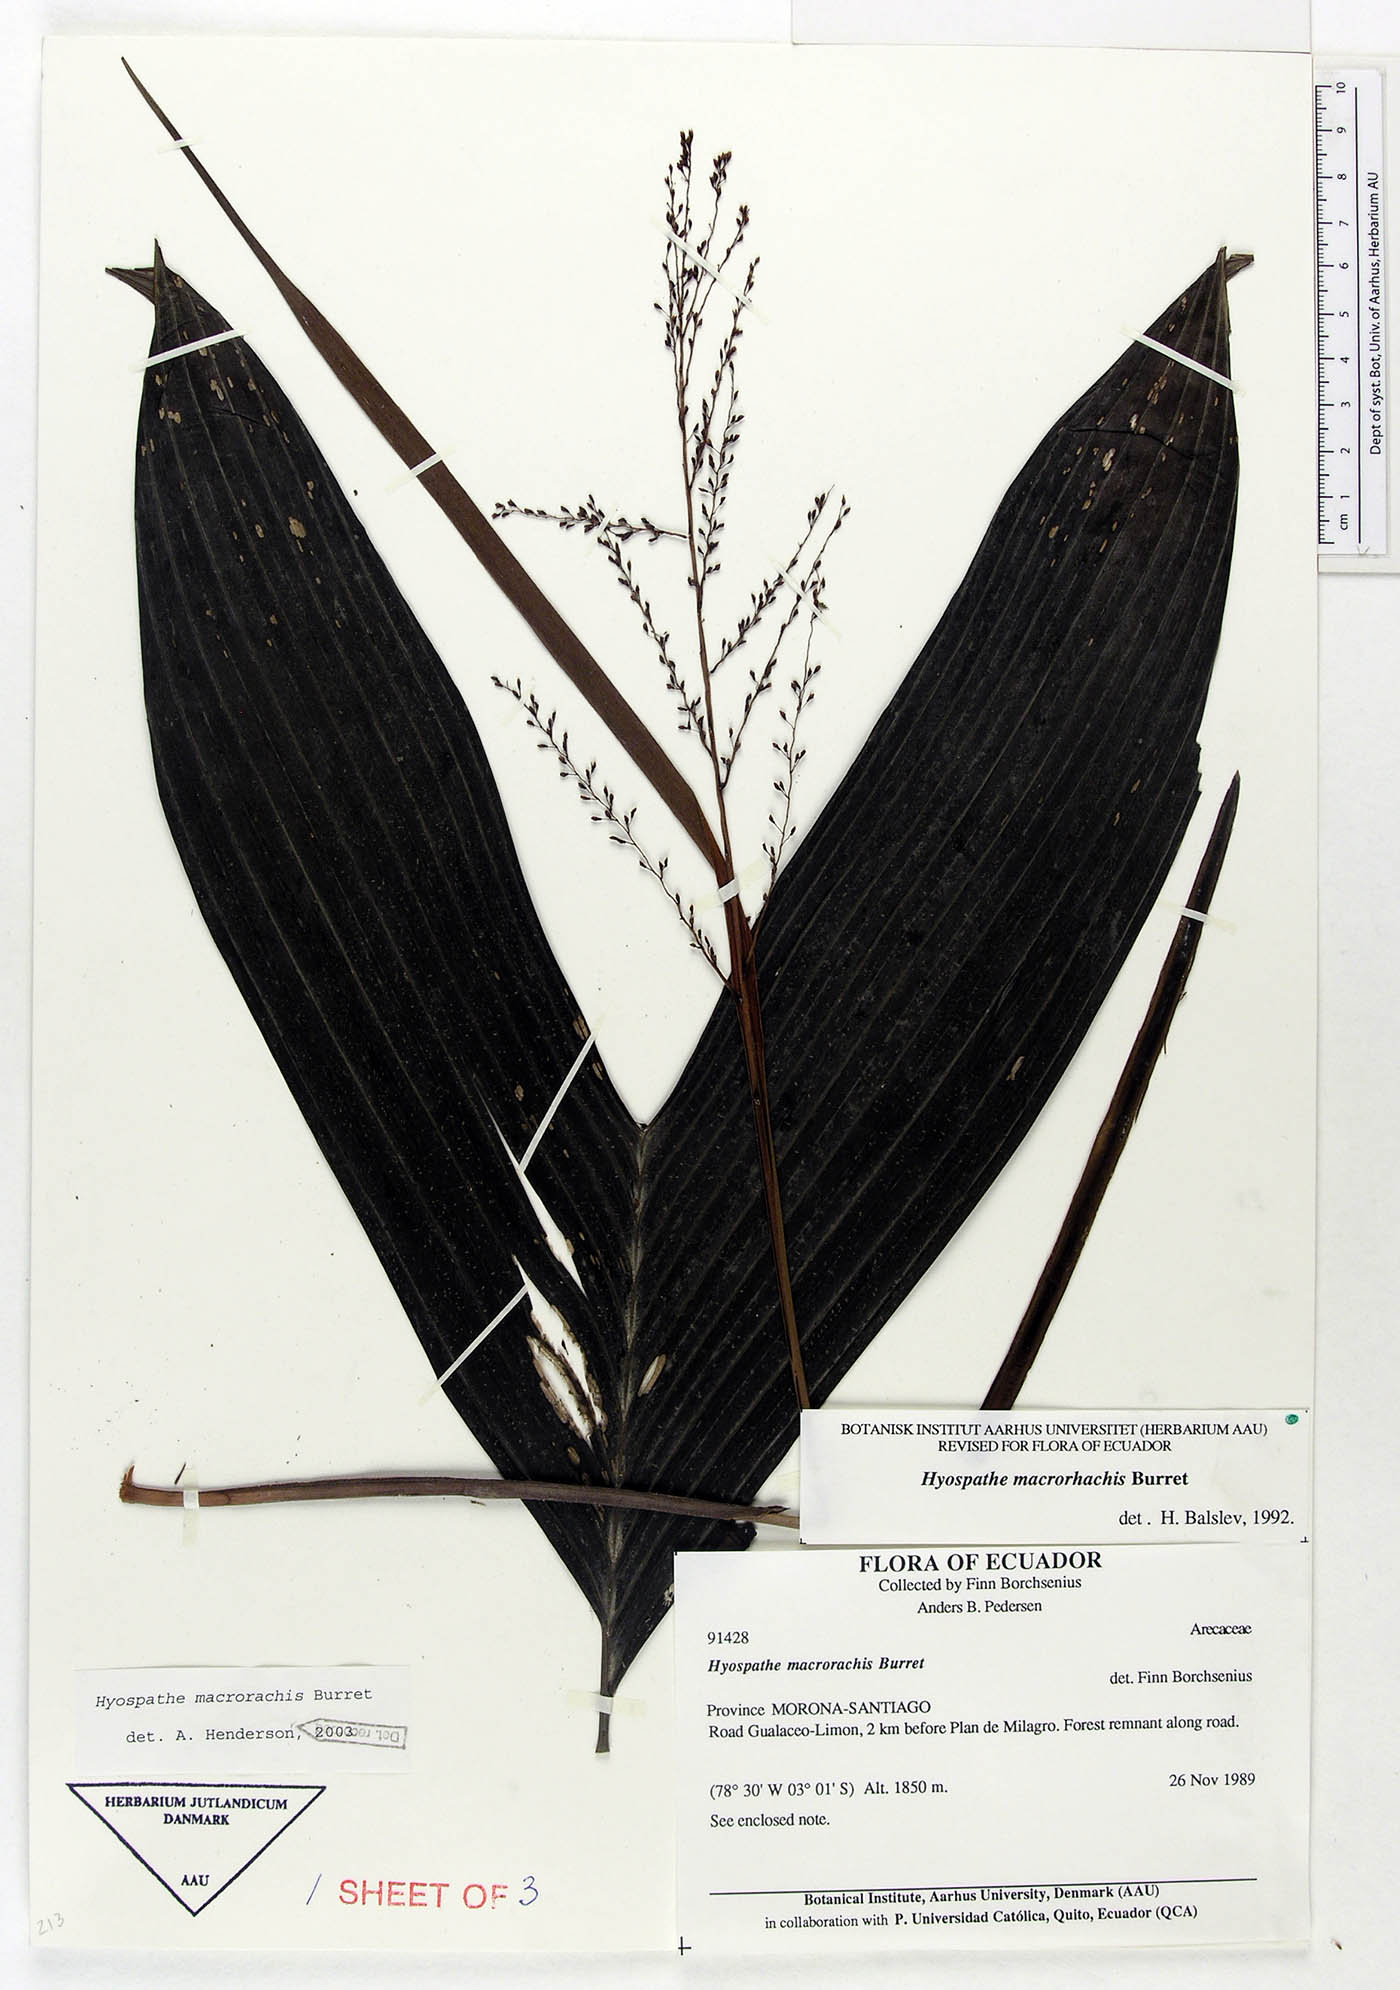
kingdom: Plantae
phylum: Tracheophyta
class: Liliopsida
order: Arecales
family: Arecaceae
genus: Hyospathe
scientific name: Hyospathe macrorhachis
